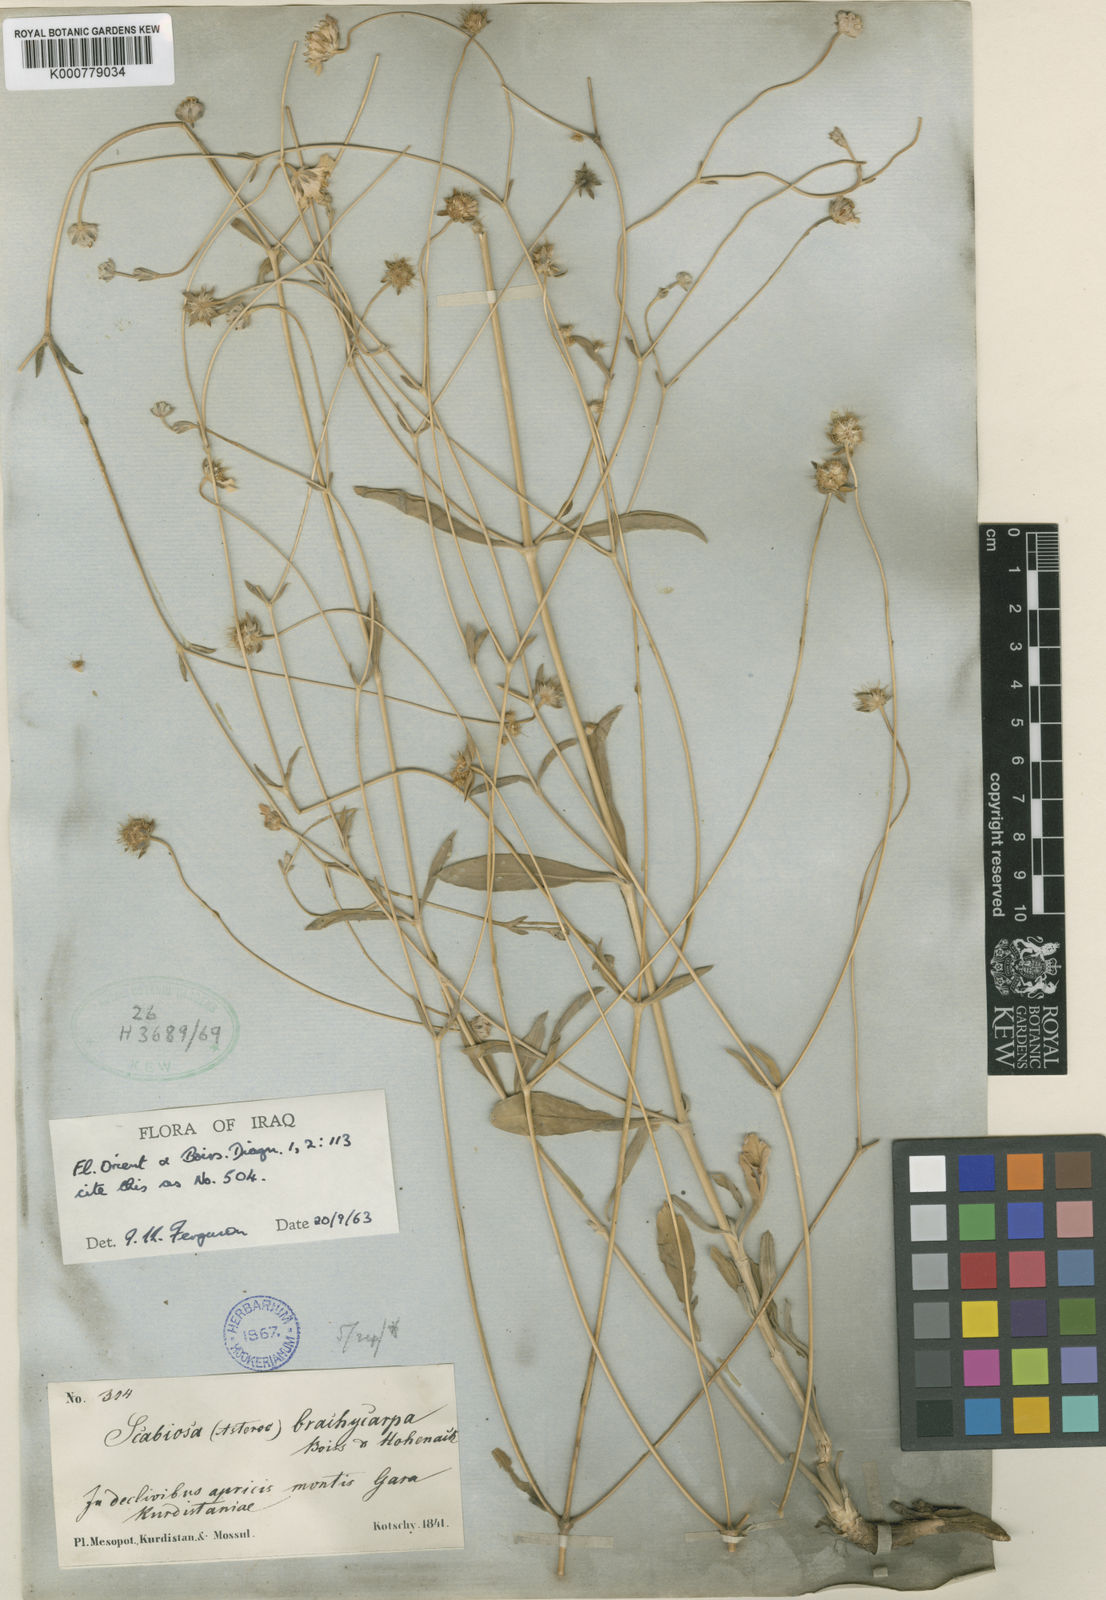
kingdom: Plantae
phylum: Tracheophyta
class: Magnoliopsida
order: Dipsacales
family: Caprifoliaceae
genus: Lomelosia
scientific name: Lomelosia brachycarpa
